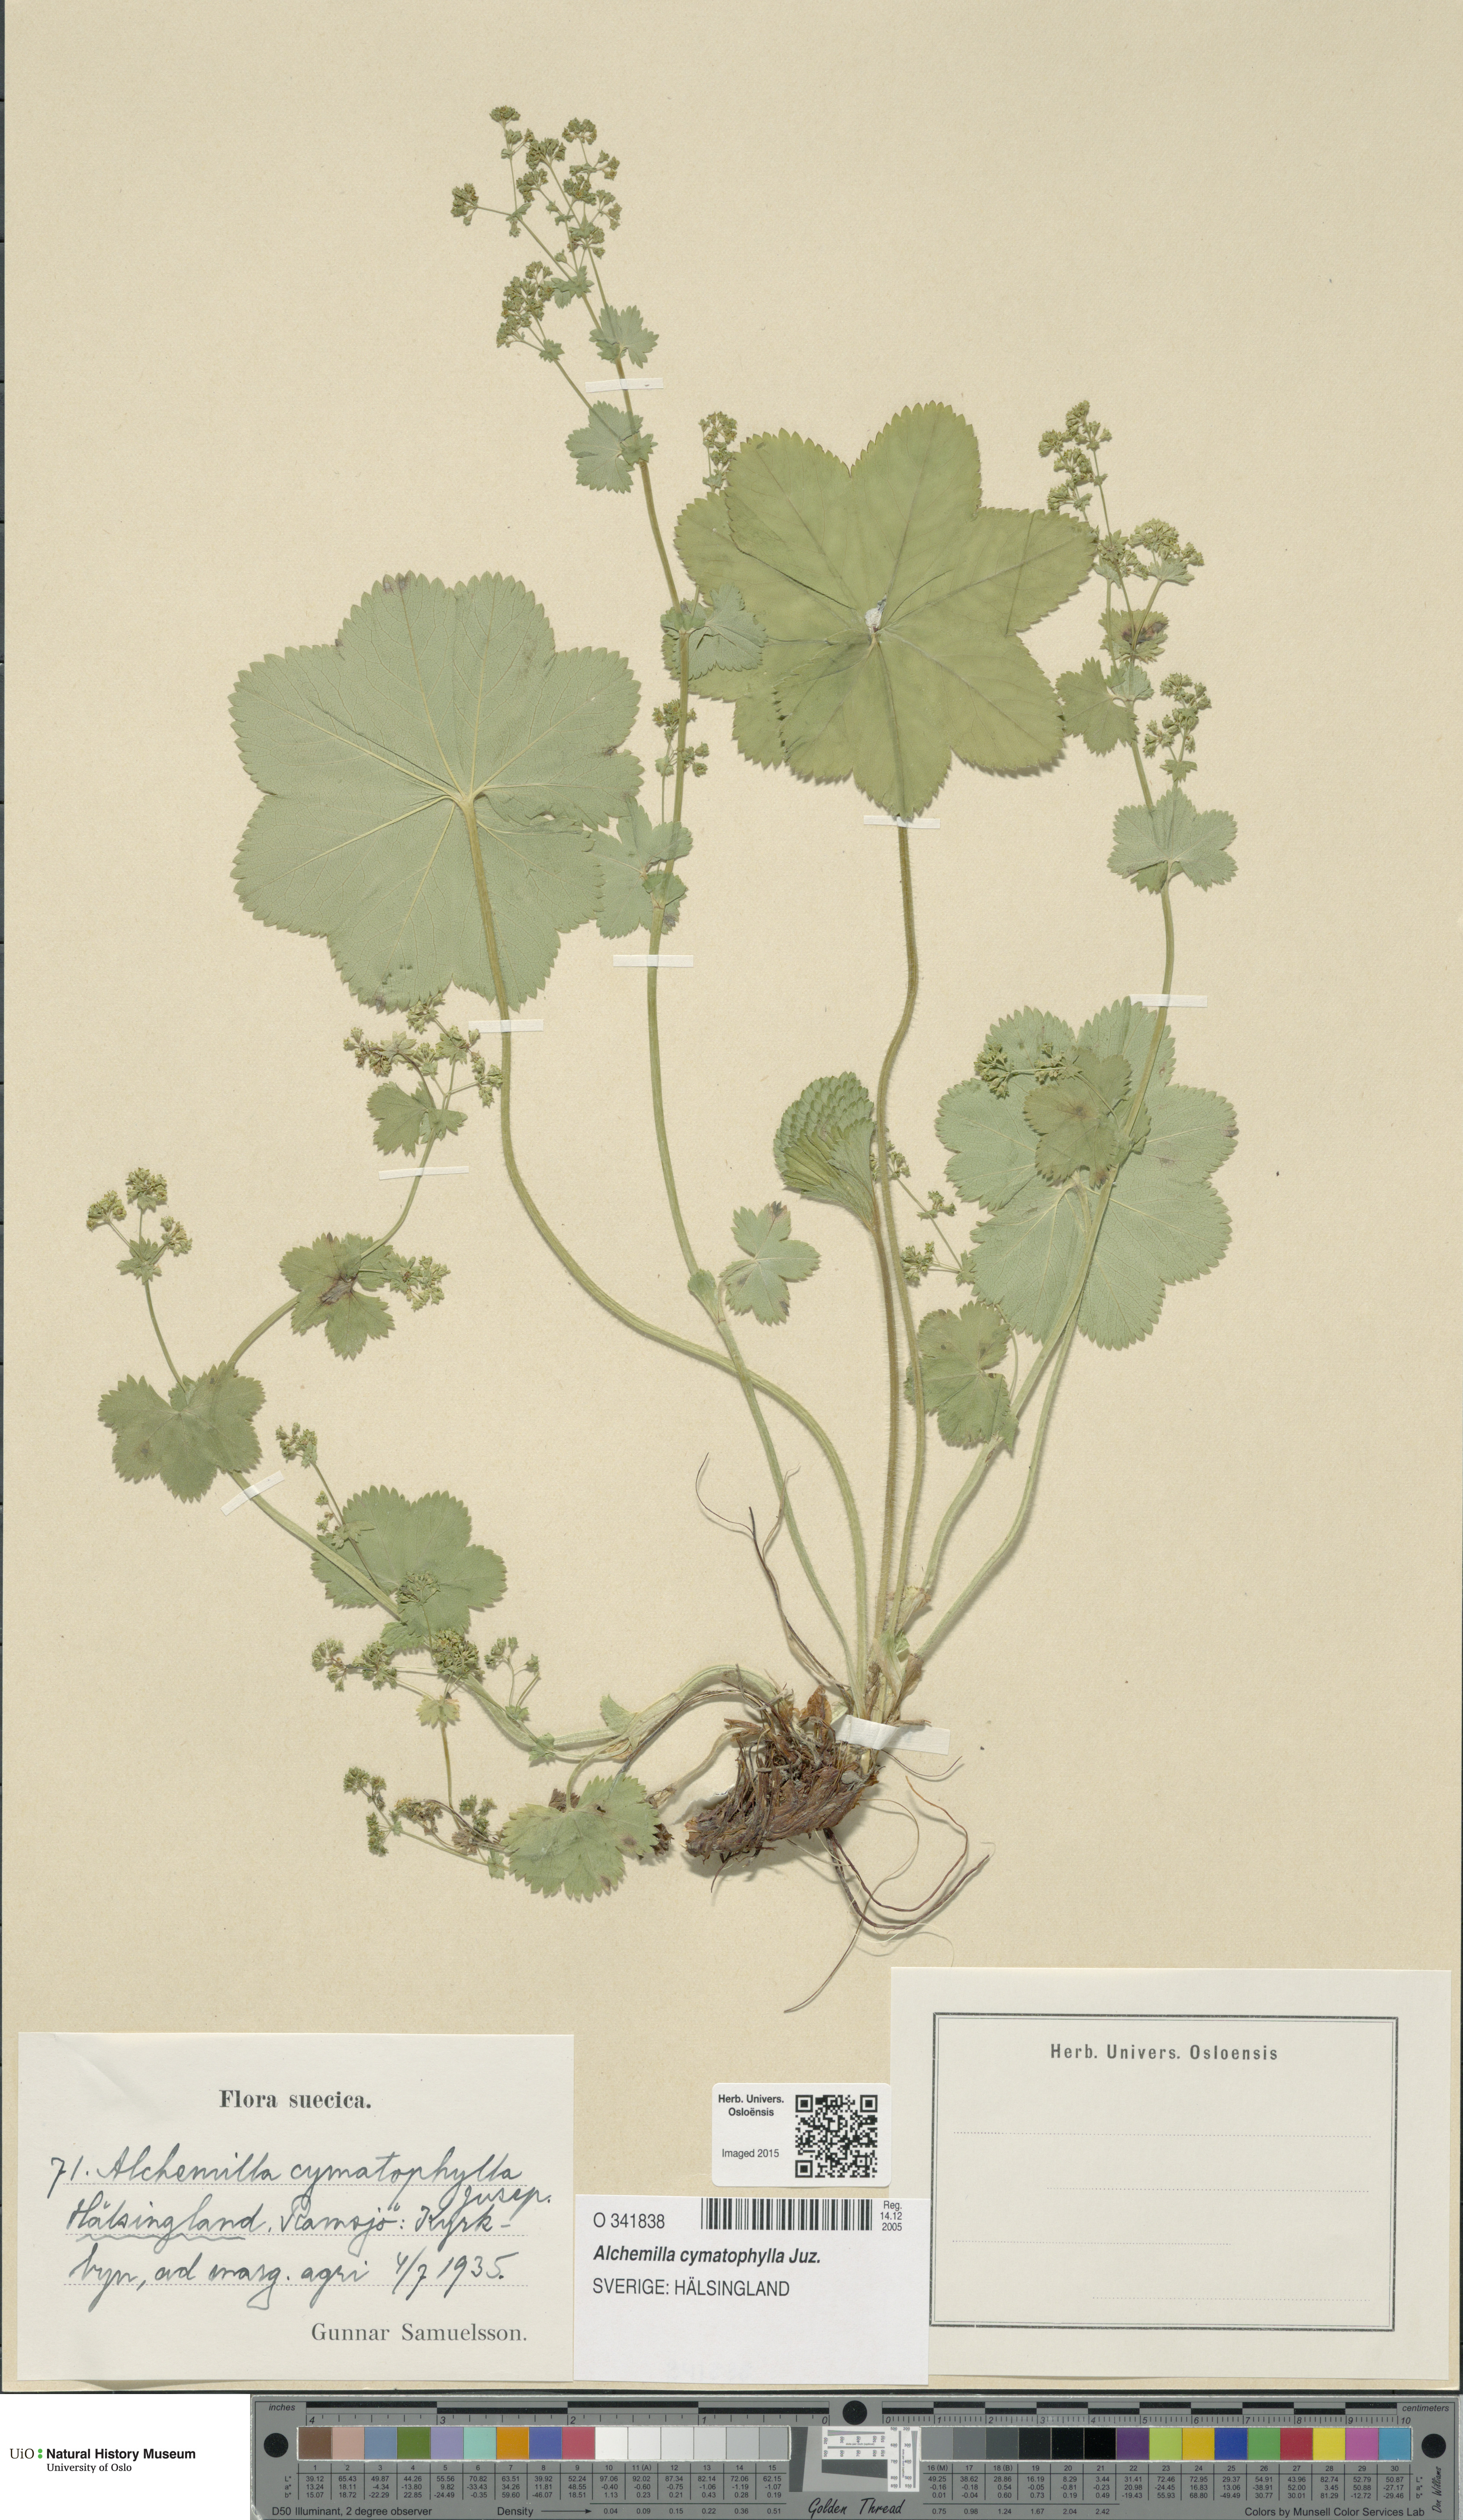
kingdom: Plantae
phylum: Tracheophyta
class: Magnoliopsida
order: Rosales
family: Rosaceae
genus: Alchemilla
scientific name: Alchemilla cymatophylla
